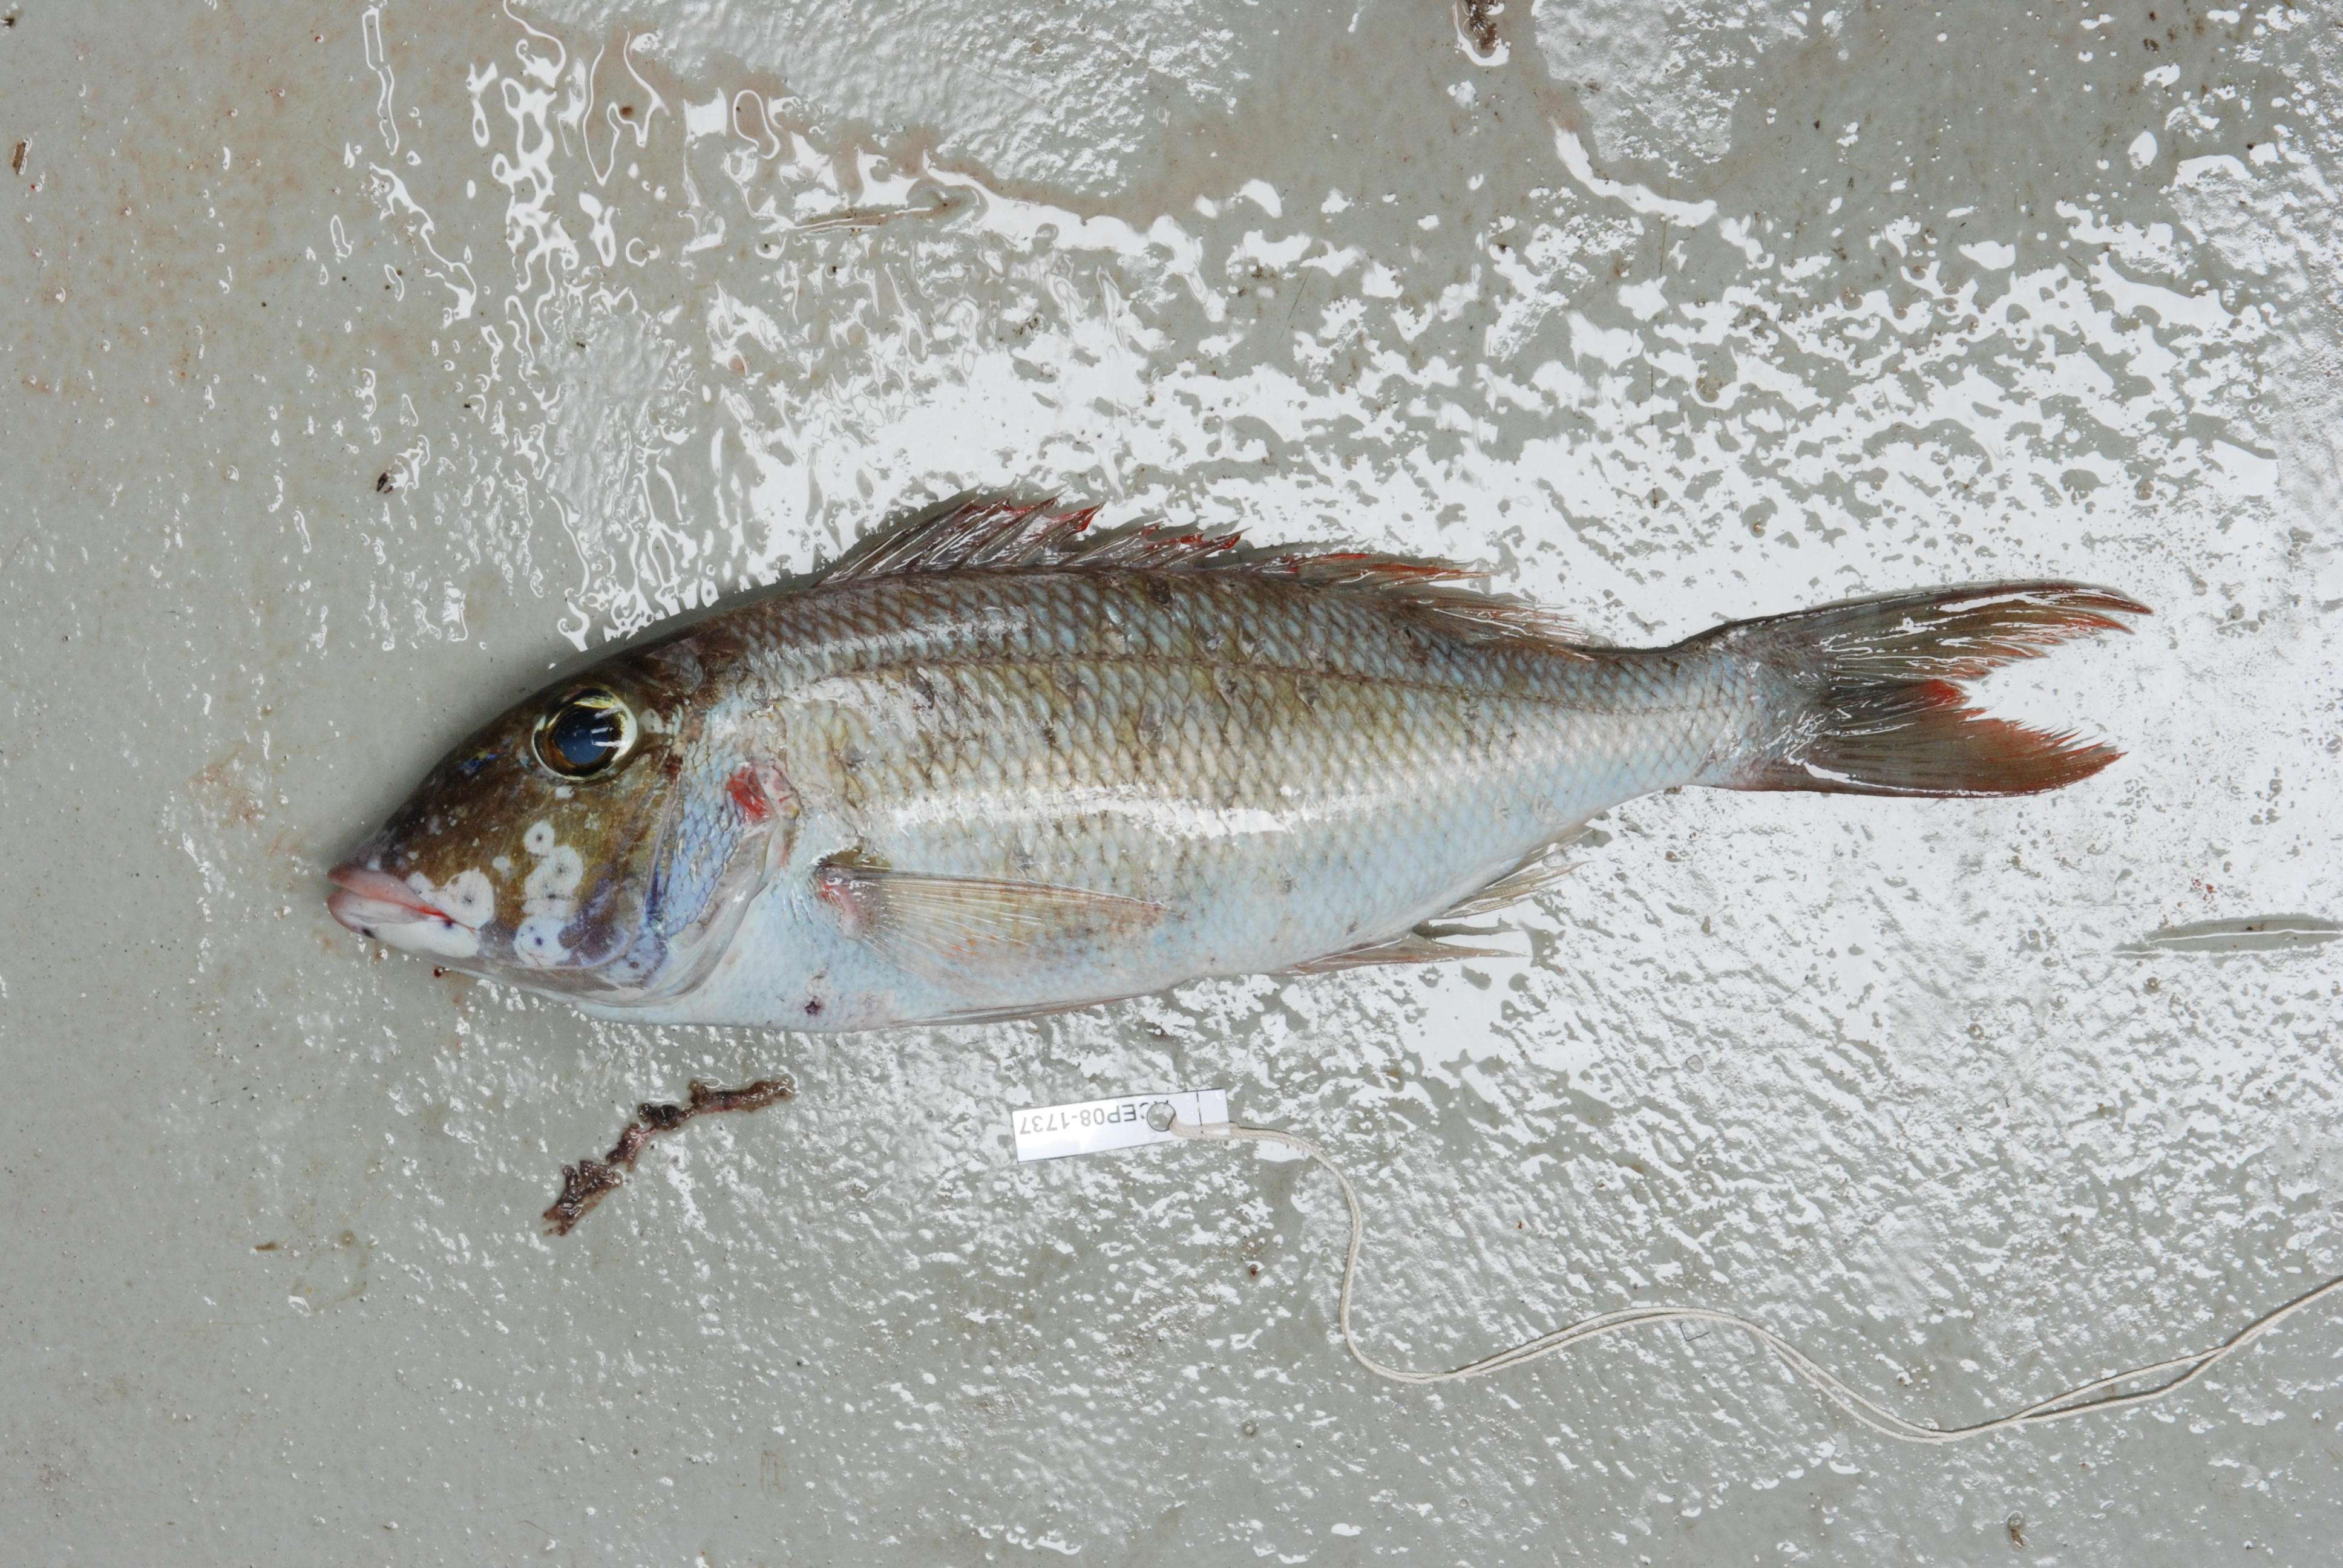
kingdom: Animalia
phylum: Chordata
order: Perciformes
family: Lethrinidae
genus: Lethrinus
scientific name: Lethrinus rubrioperculatus
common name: Spotcheek emperor
